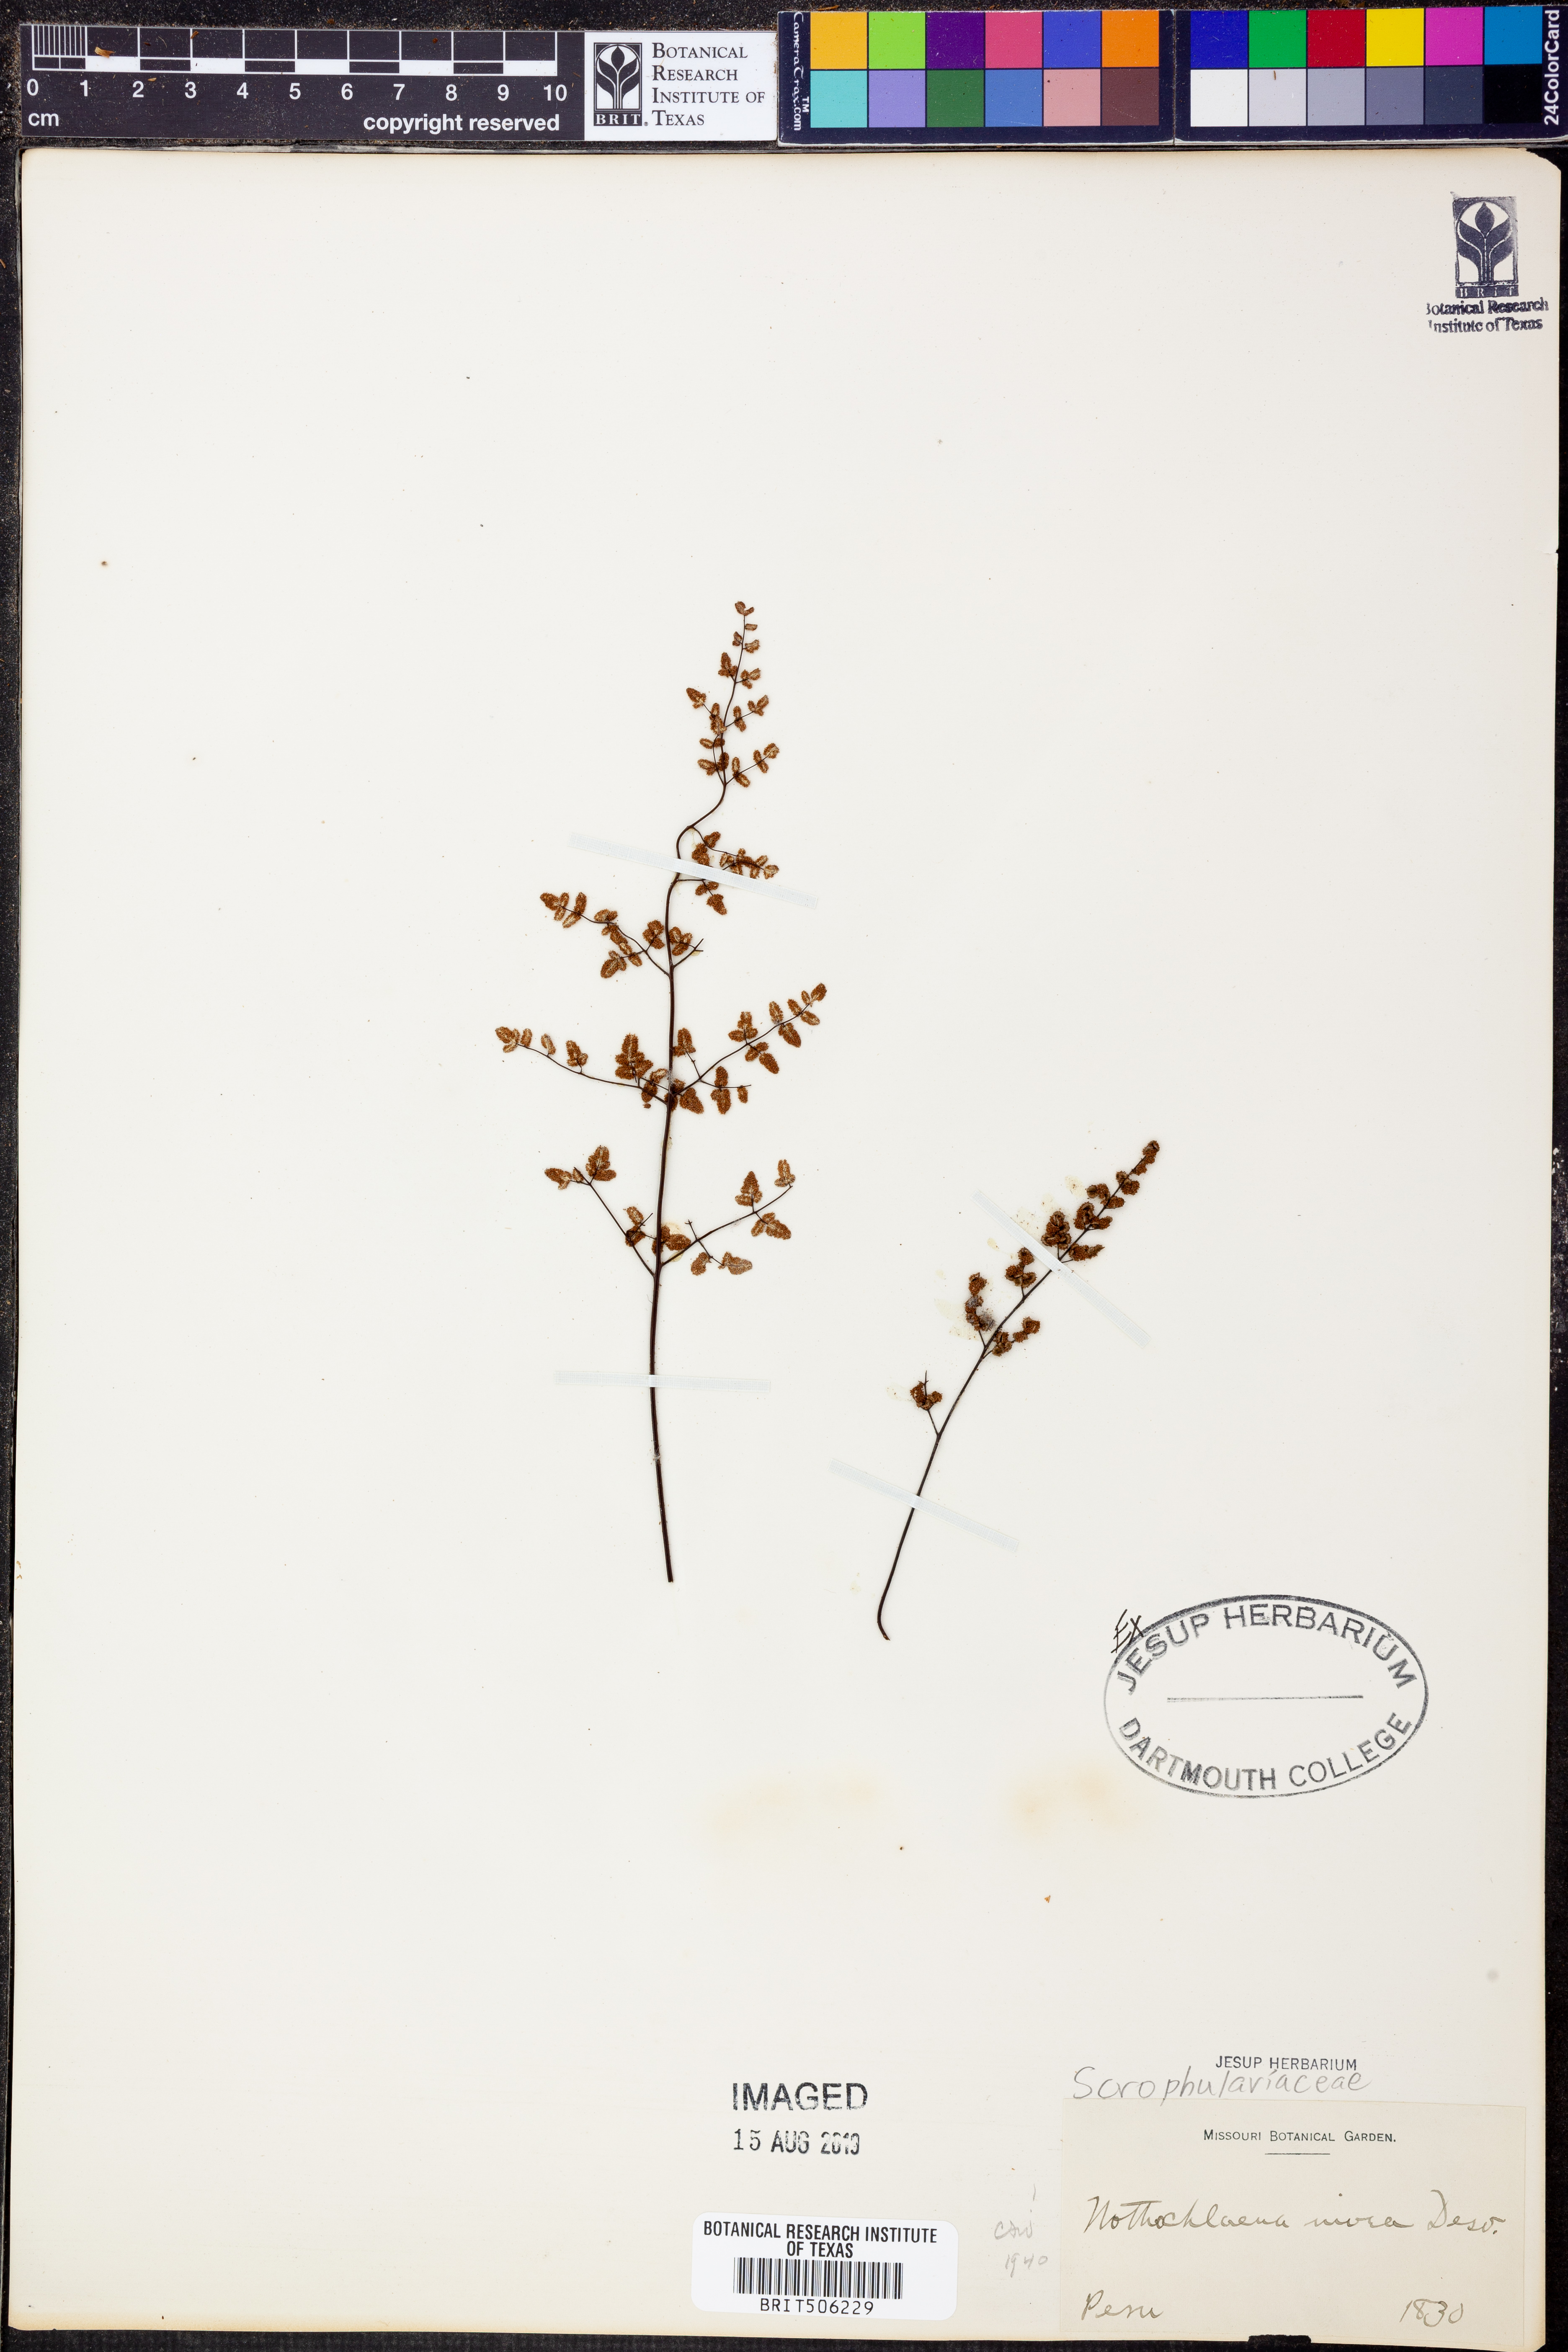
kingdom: Plantae
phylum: Tracheophyta
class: Polypodiopsida
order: Polypodiales
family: Pteridaceae
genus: Argyrochosma
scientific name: Argyrochosma nivea
